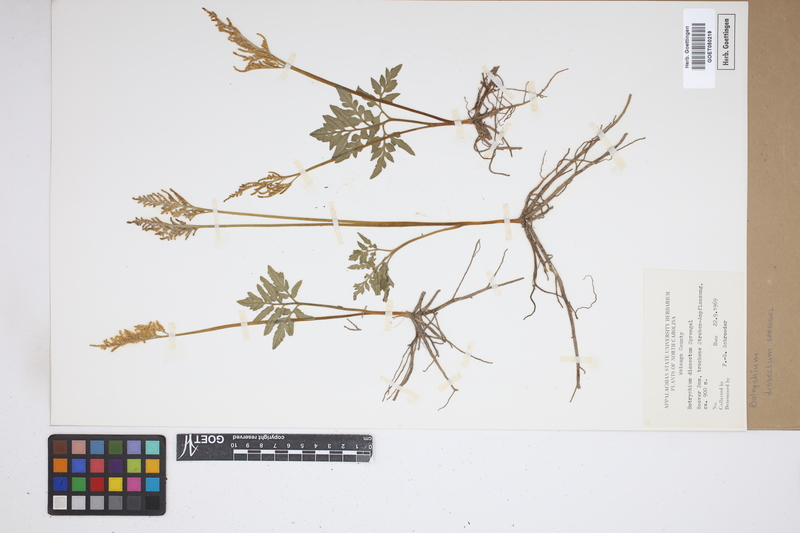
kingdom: Plantae
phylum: Tracheophyta
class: Polypodiopsida
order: Ophioglossales
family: Ophioglossaceae
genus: Sceptridium
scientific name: Sceptridium dissectum
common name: Cut-leaved grapefern
